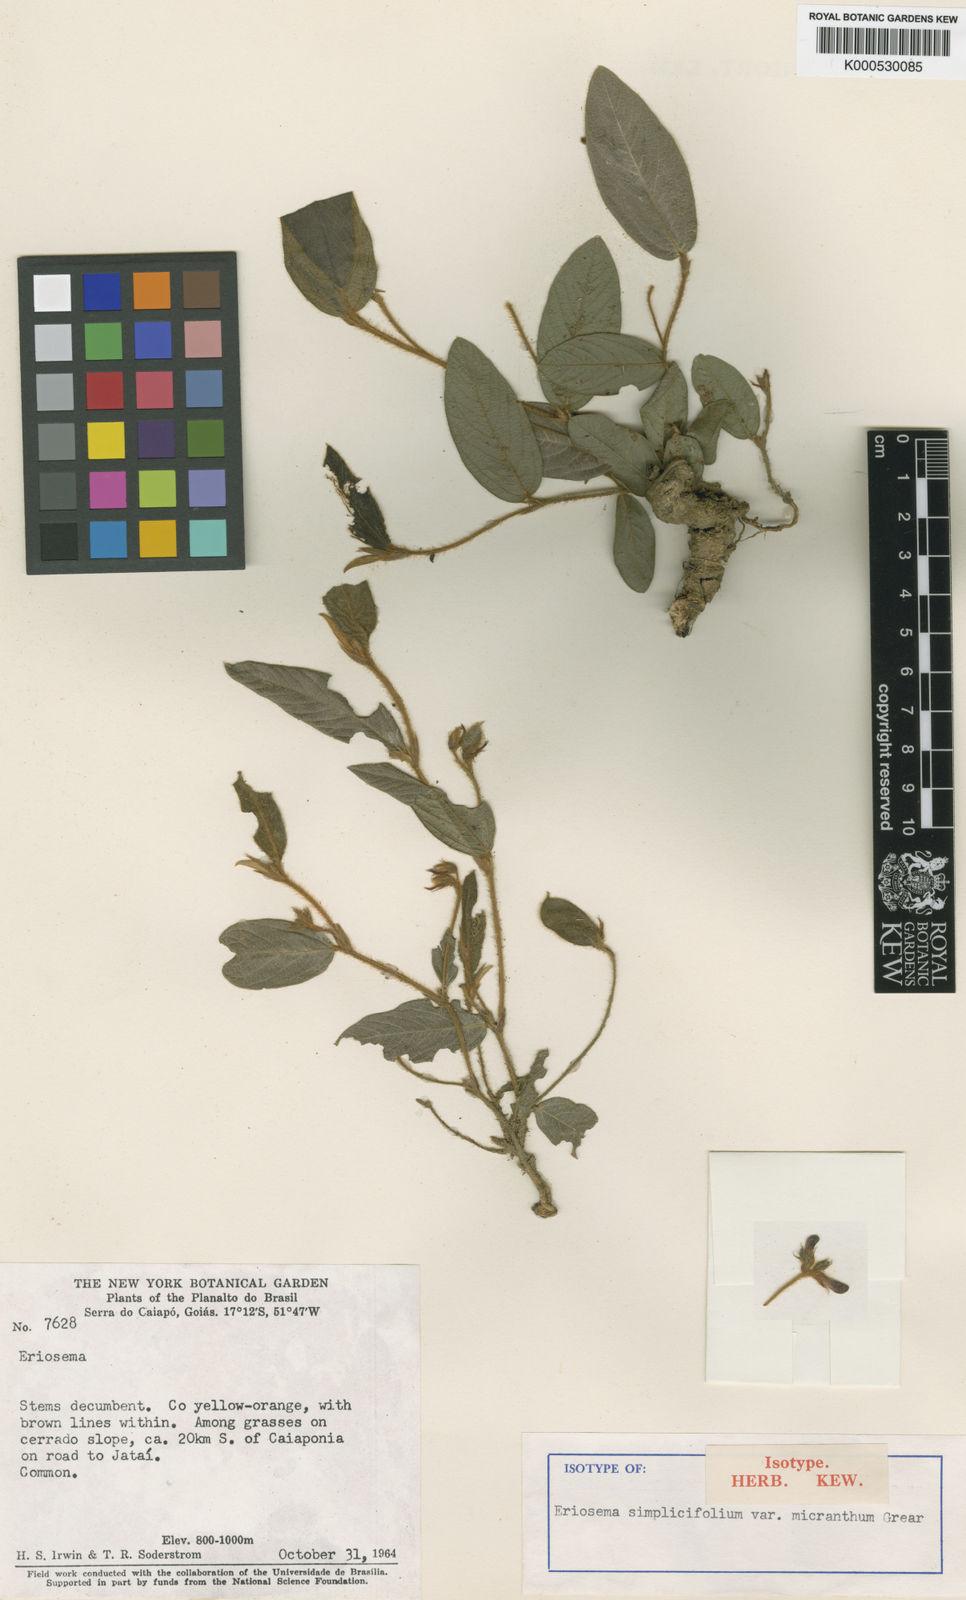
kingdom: Plantae
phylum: Tracheophyta
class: Magnoliopsida
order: Fabales
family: Fabaceae
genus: Eriosema
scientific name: Eriosema simplicifolium
